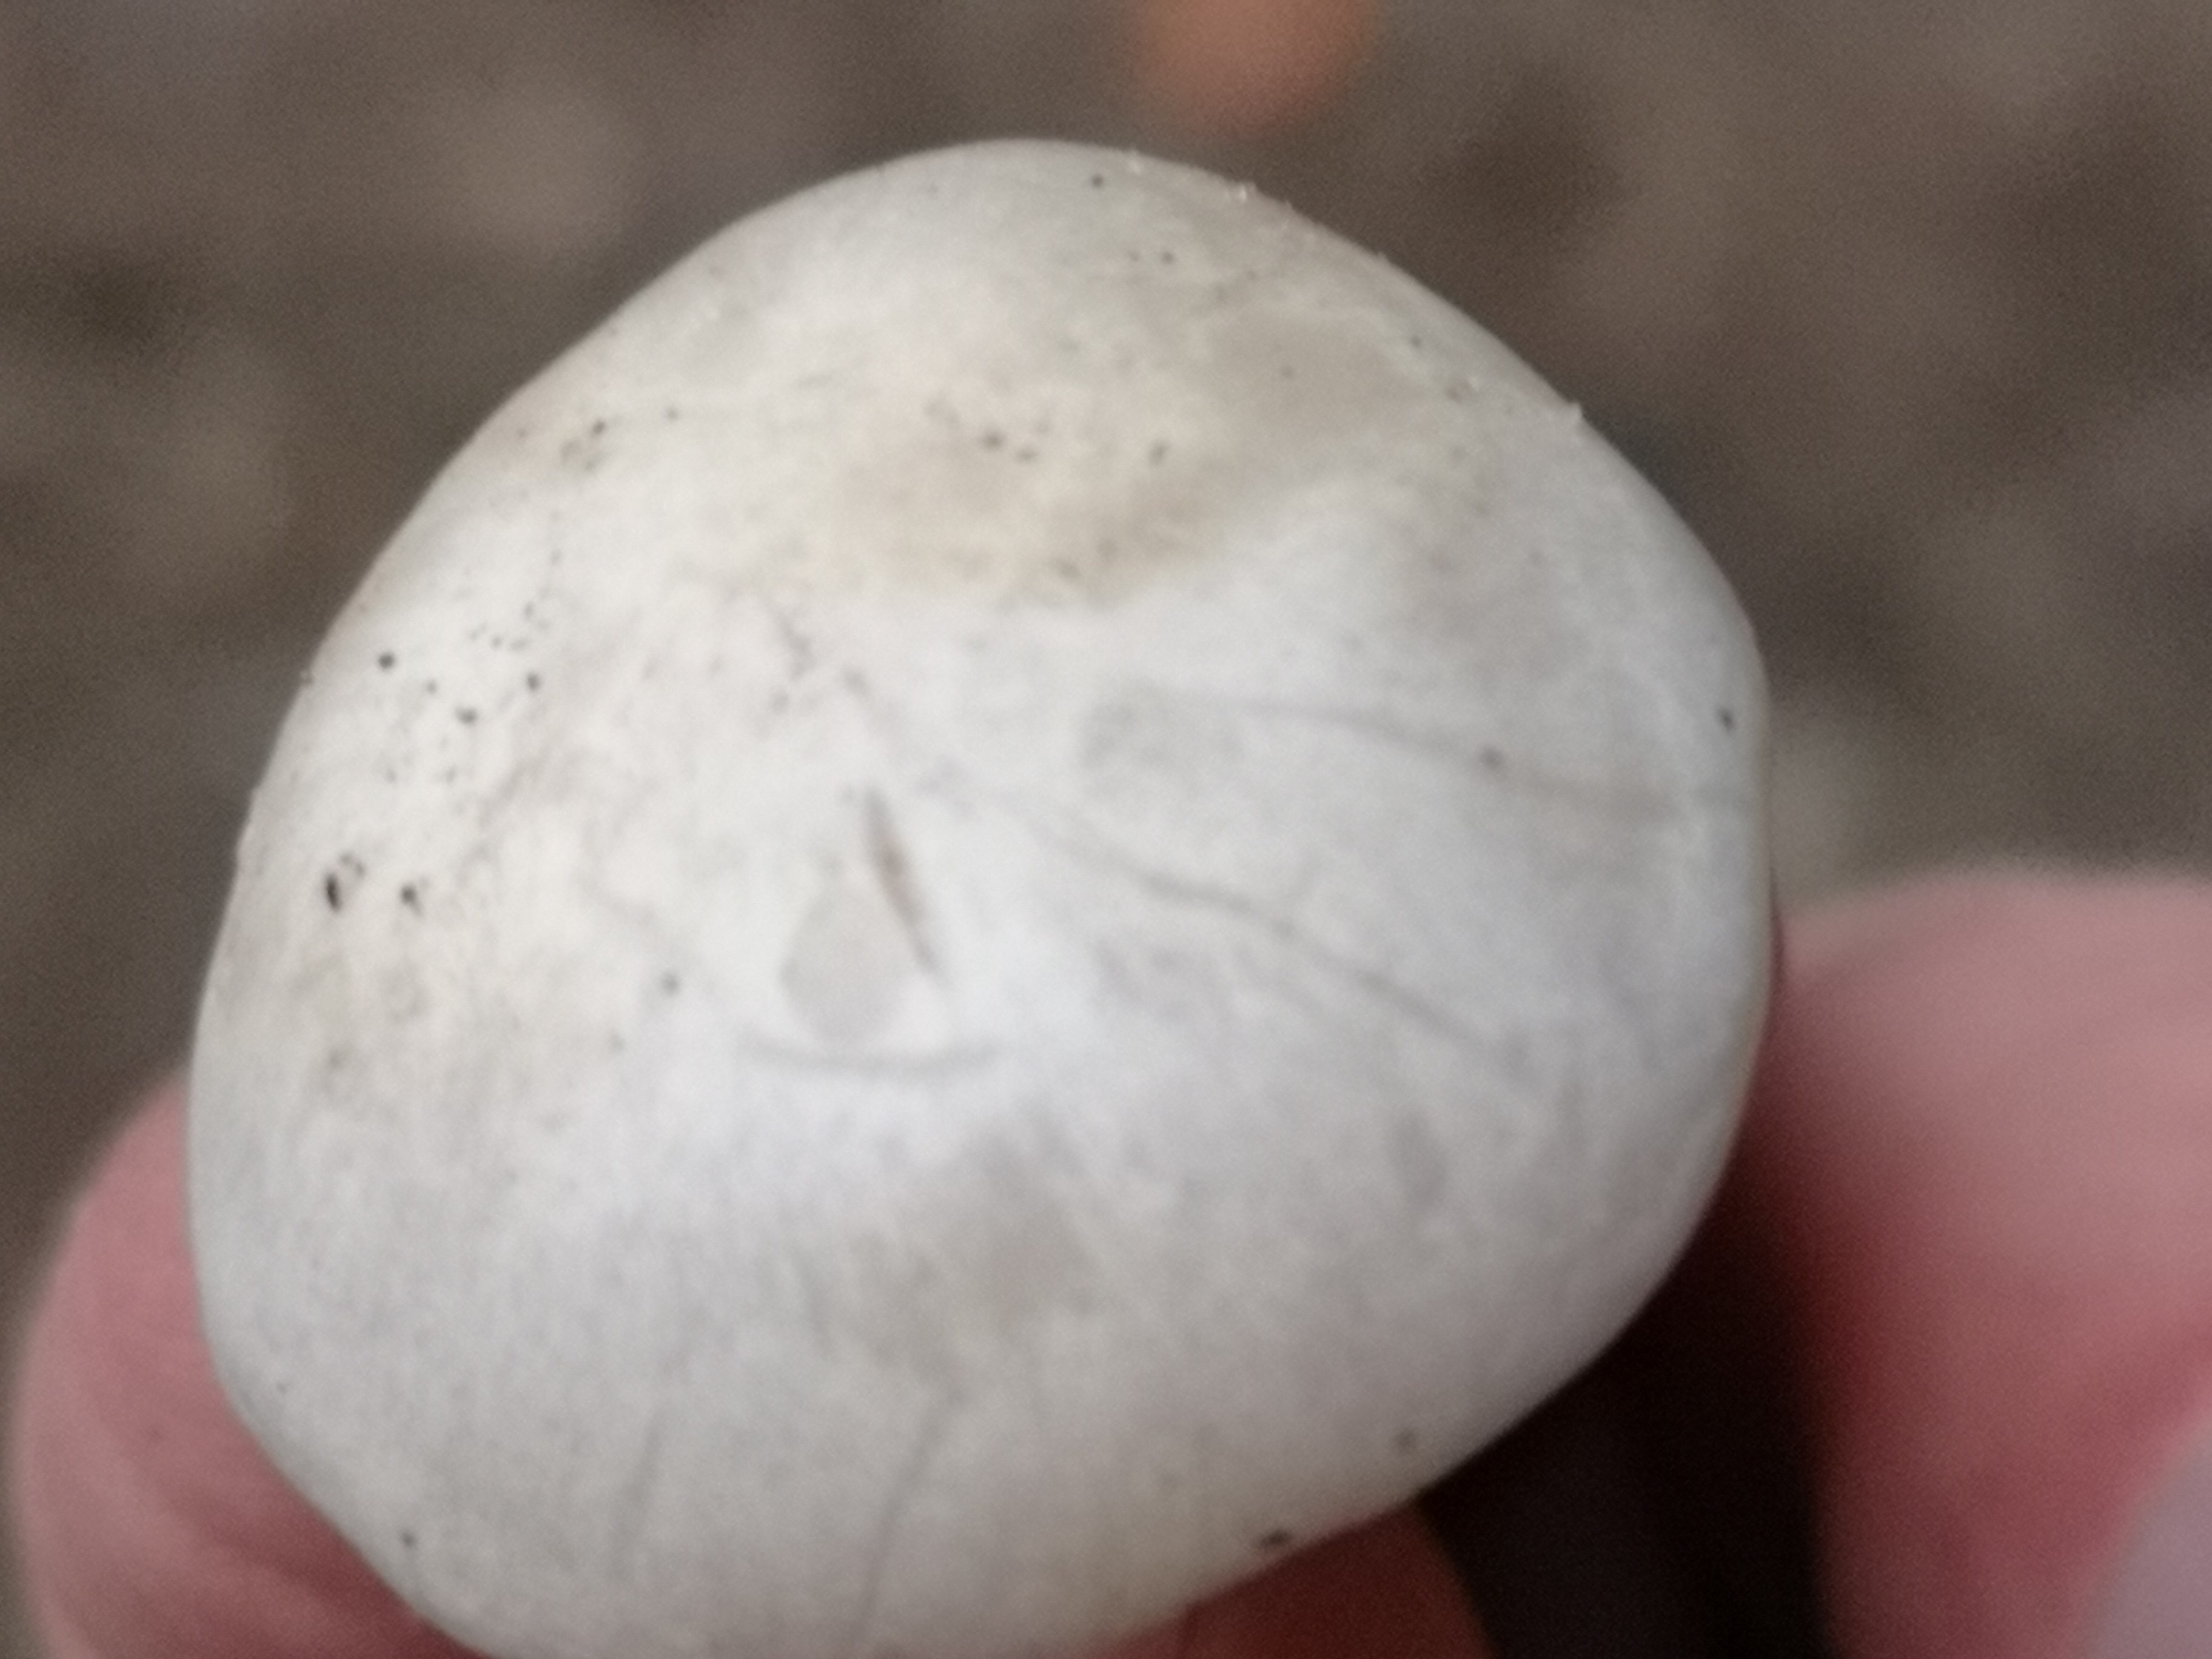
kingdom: Fungi
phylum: Basidiomycota
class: Agaricomycetes
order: Agaricales
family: Tricholomataceae
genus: Leucocybe
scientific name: Leucocybe connata
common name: knippe-tragthat
